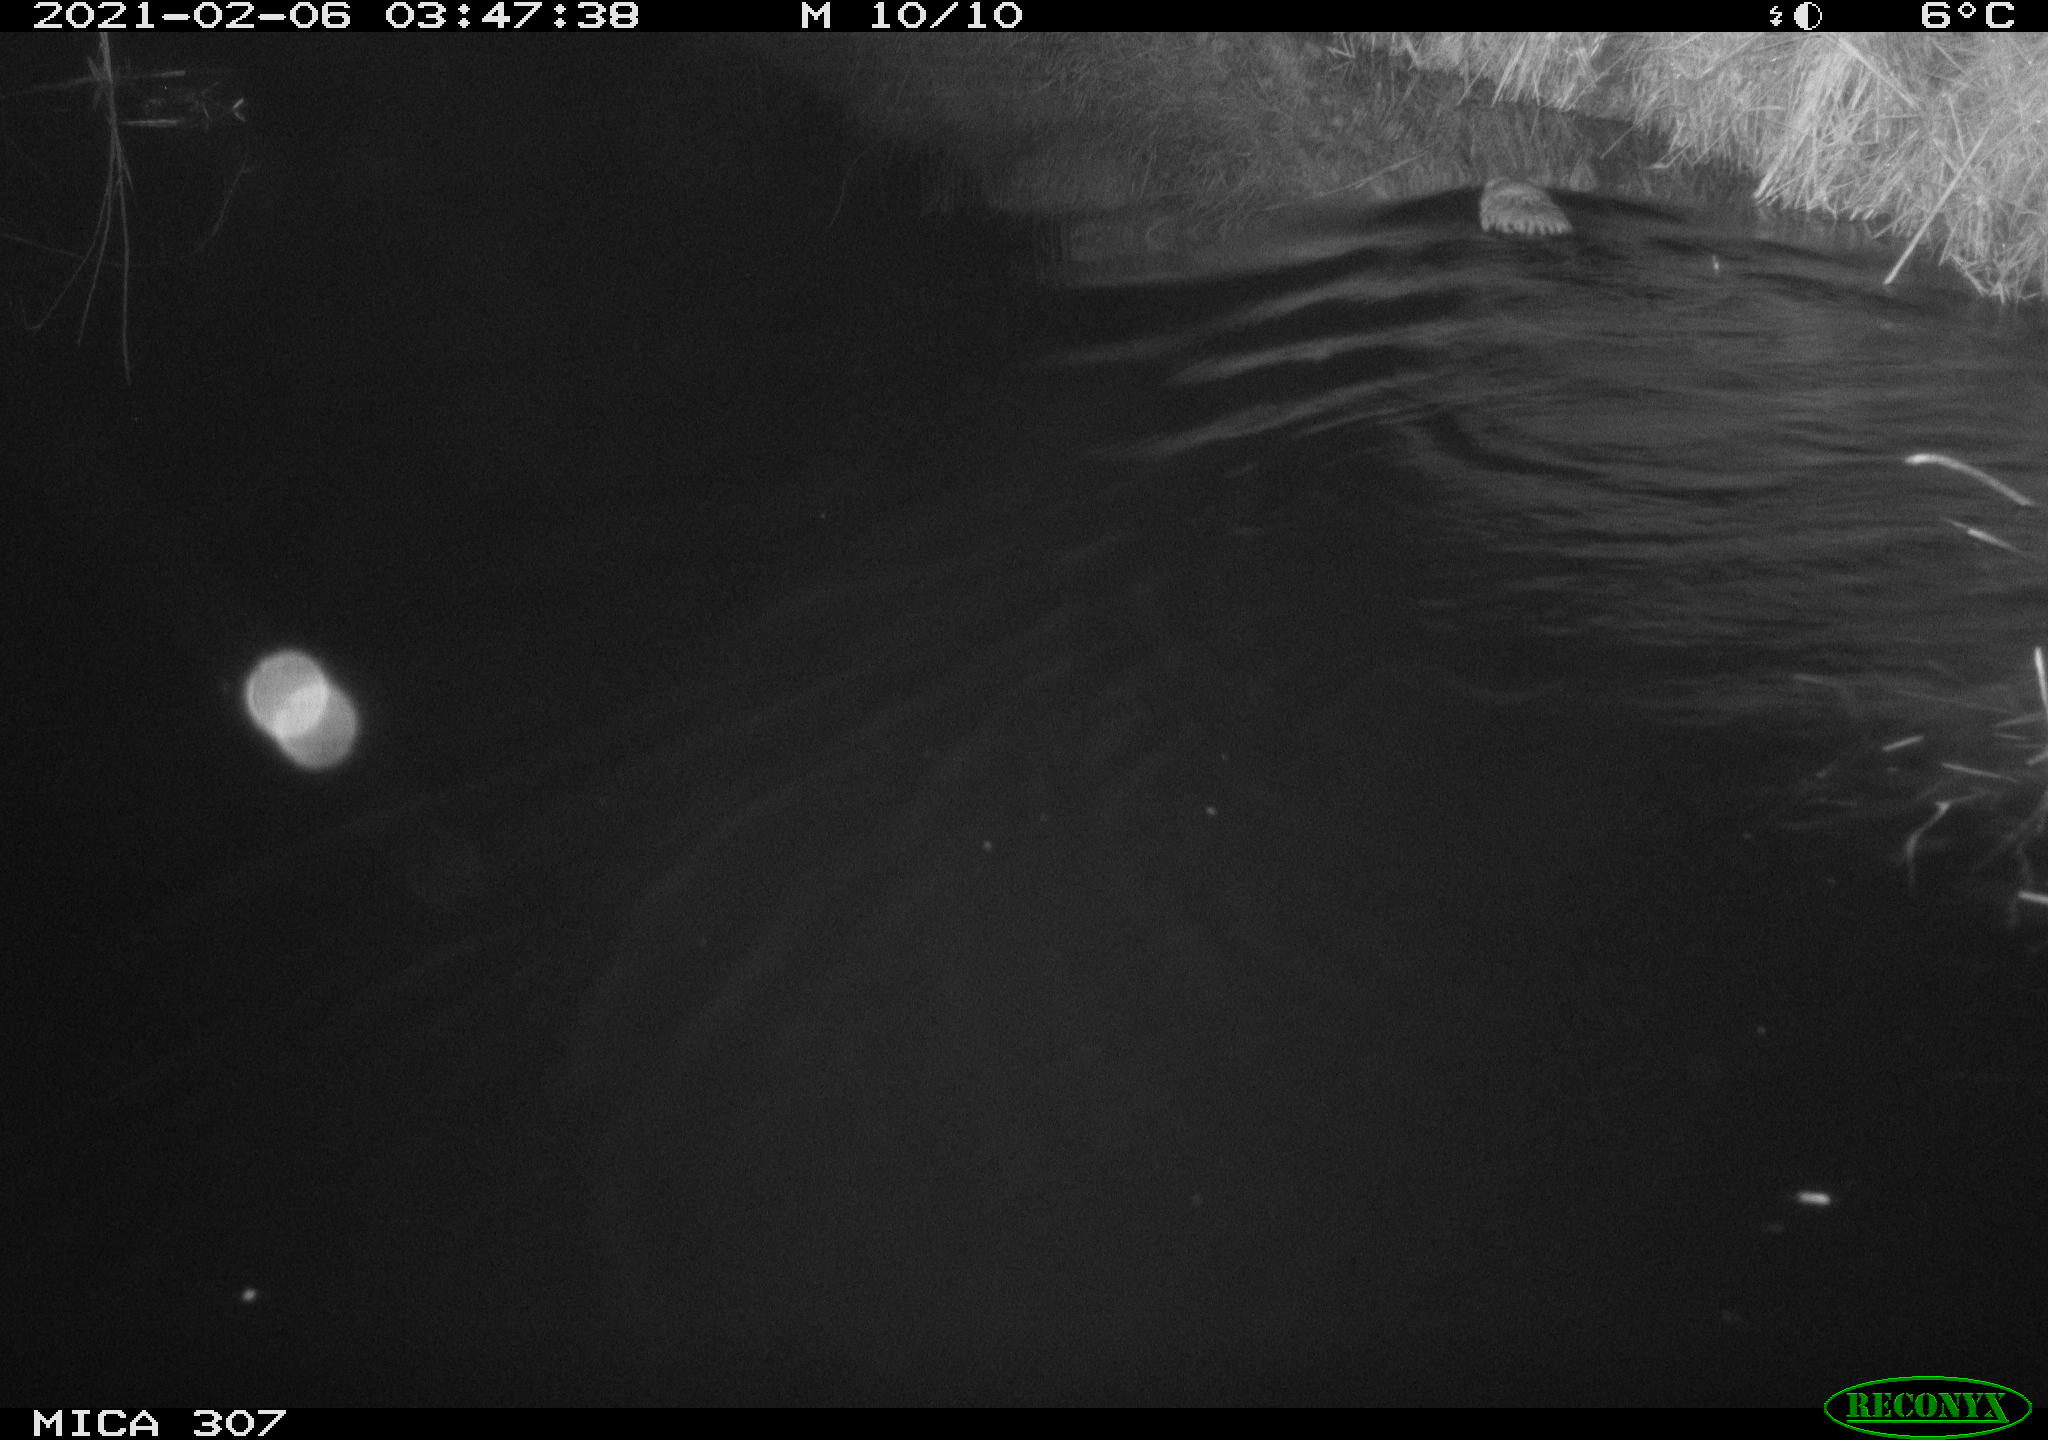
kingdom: Animalia
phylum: Chordata
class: Mammalia
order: Rodentia
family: Cricetidae
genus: Ondatra
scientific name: Ondatra zibethicus
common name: Muskrat
